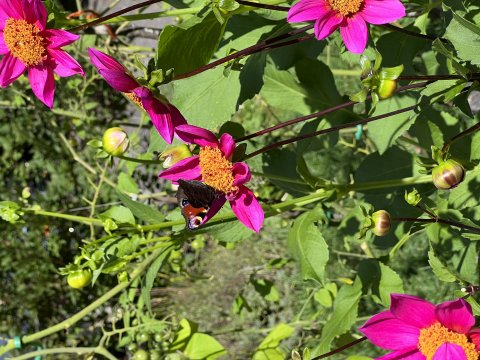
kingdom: Animalia
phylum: Arthropoda
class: Insecta
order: Lepidoptera
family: Nymphalidae
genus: Aglais
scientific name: Aglais io
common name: European Peacock
